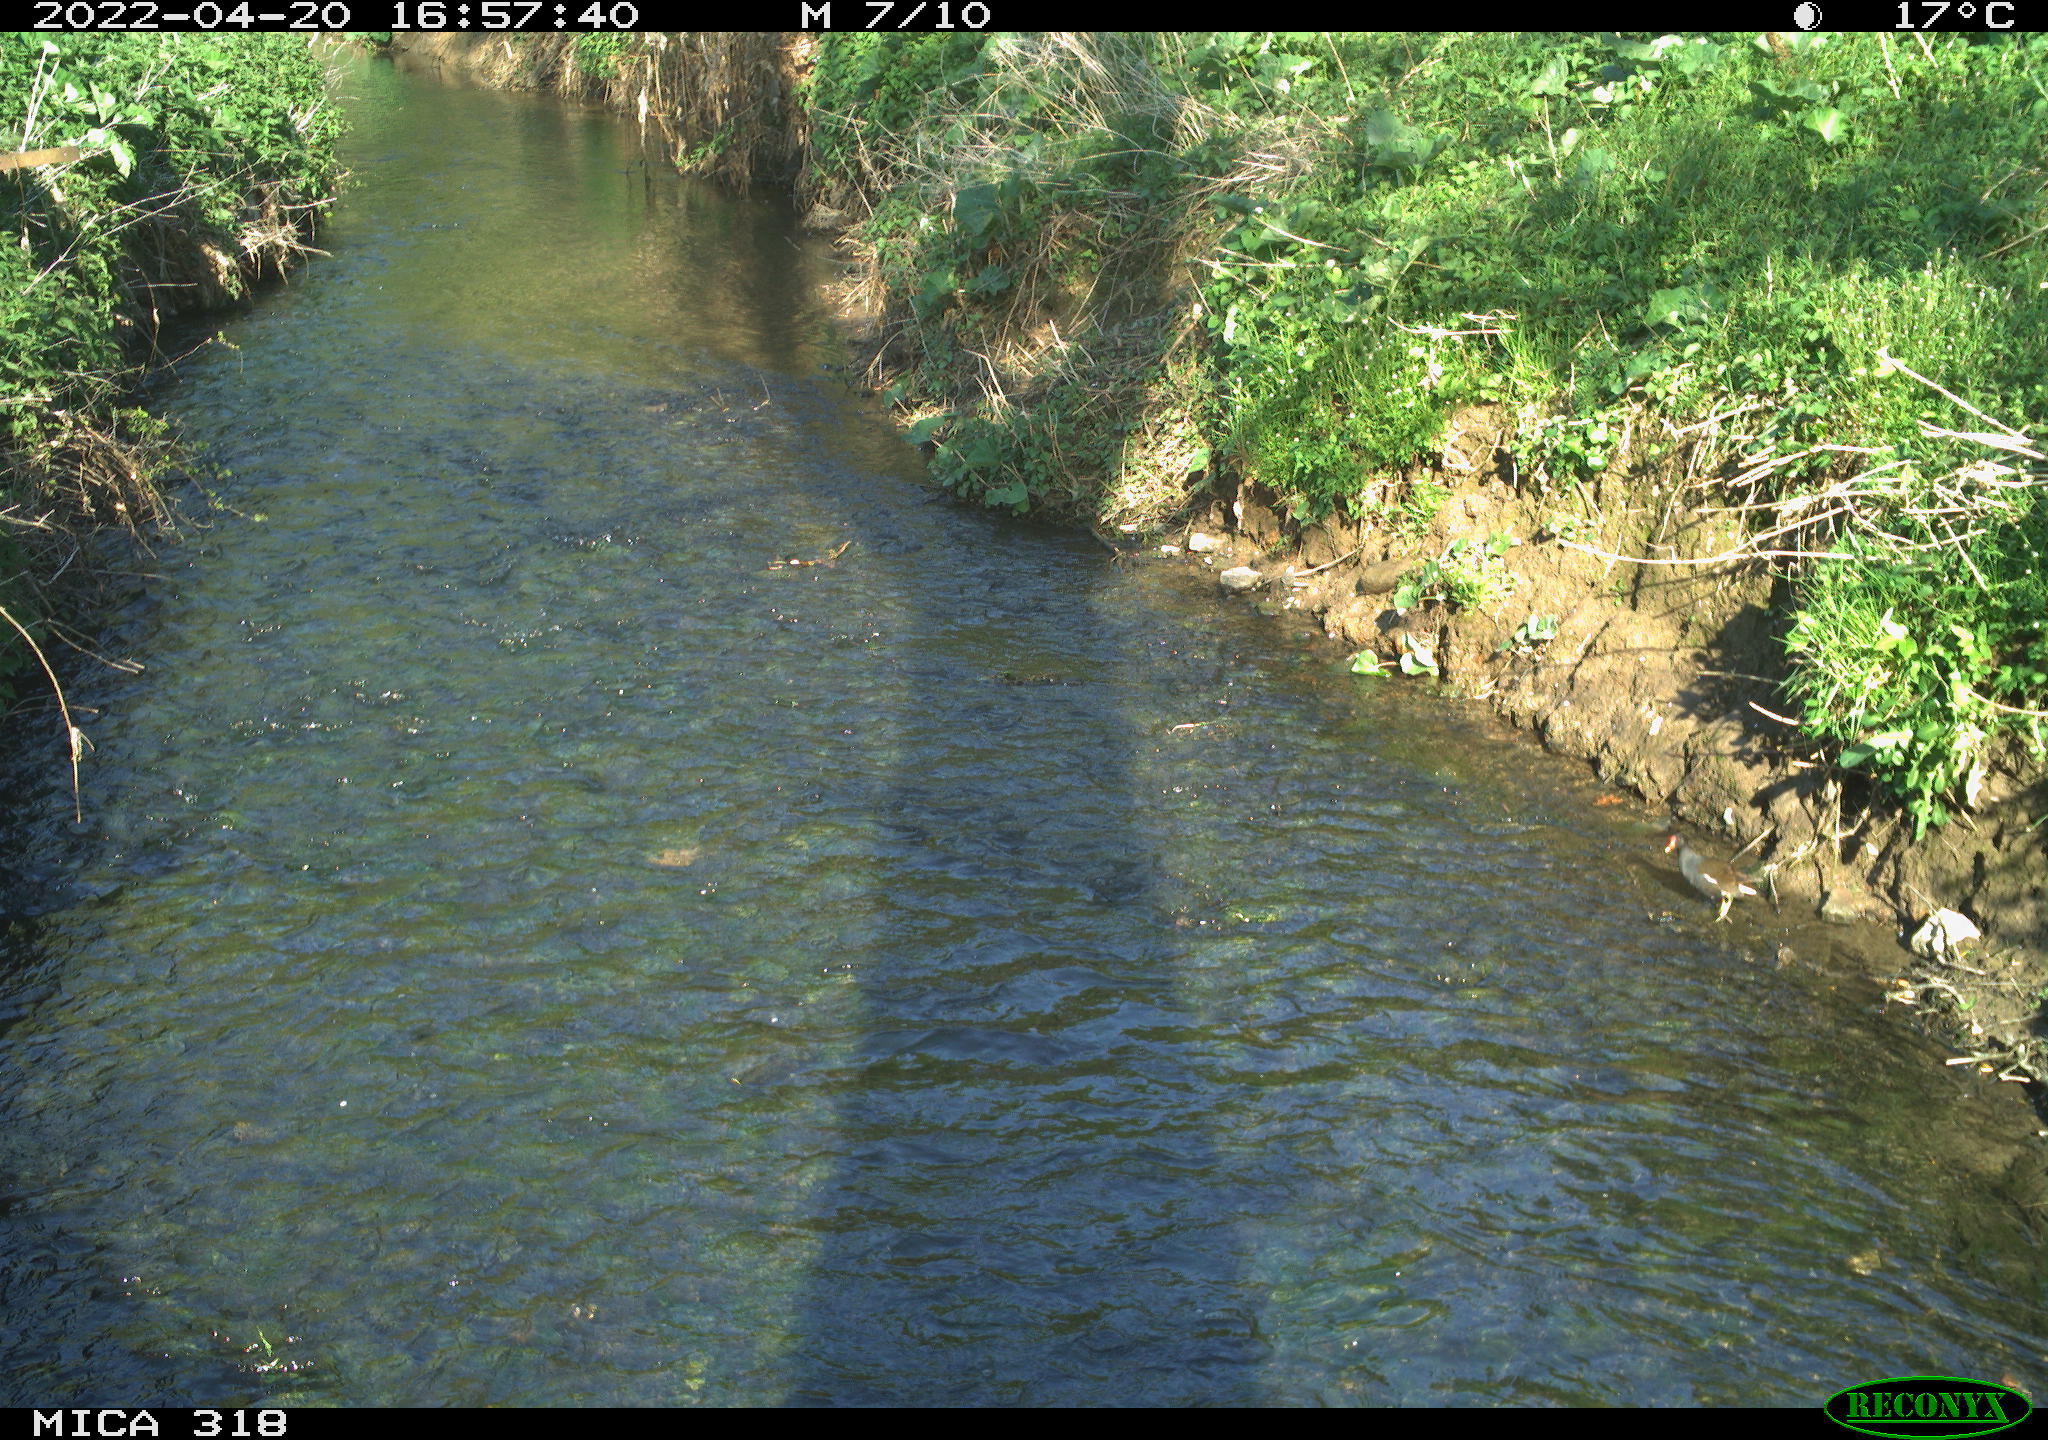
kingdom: Animalia
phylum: Chordata
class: Aves
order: Anseriformes
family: Anatidae
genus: Anas
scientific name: Anas platyrhynchos
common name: Mallard
